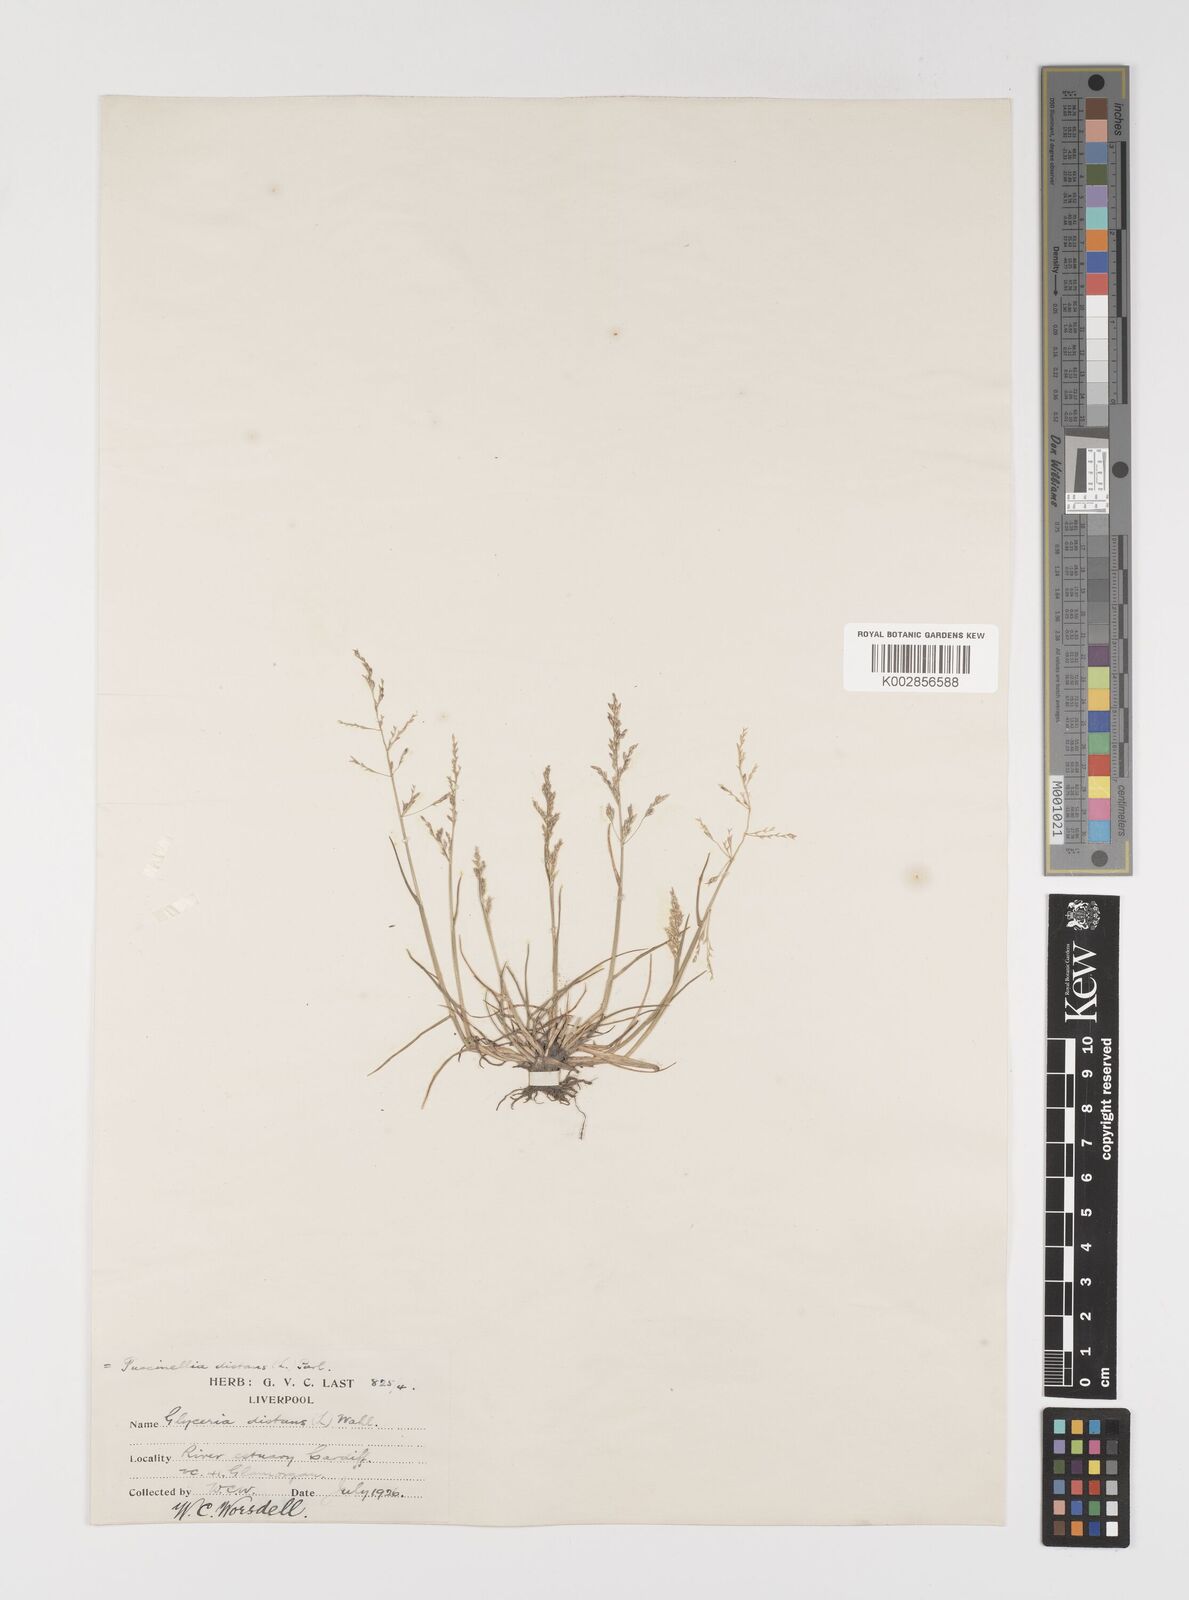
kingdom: Plantae
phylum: Tracheophyta
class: Liliopsida
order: Poales
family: Poaceae
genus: Puccinellia
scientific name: Puccinellia distans
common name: Weeping alkaligrass
